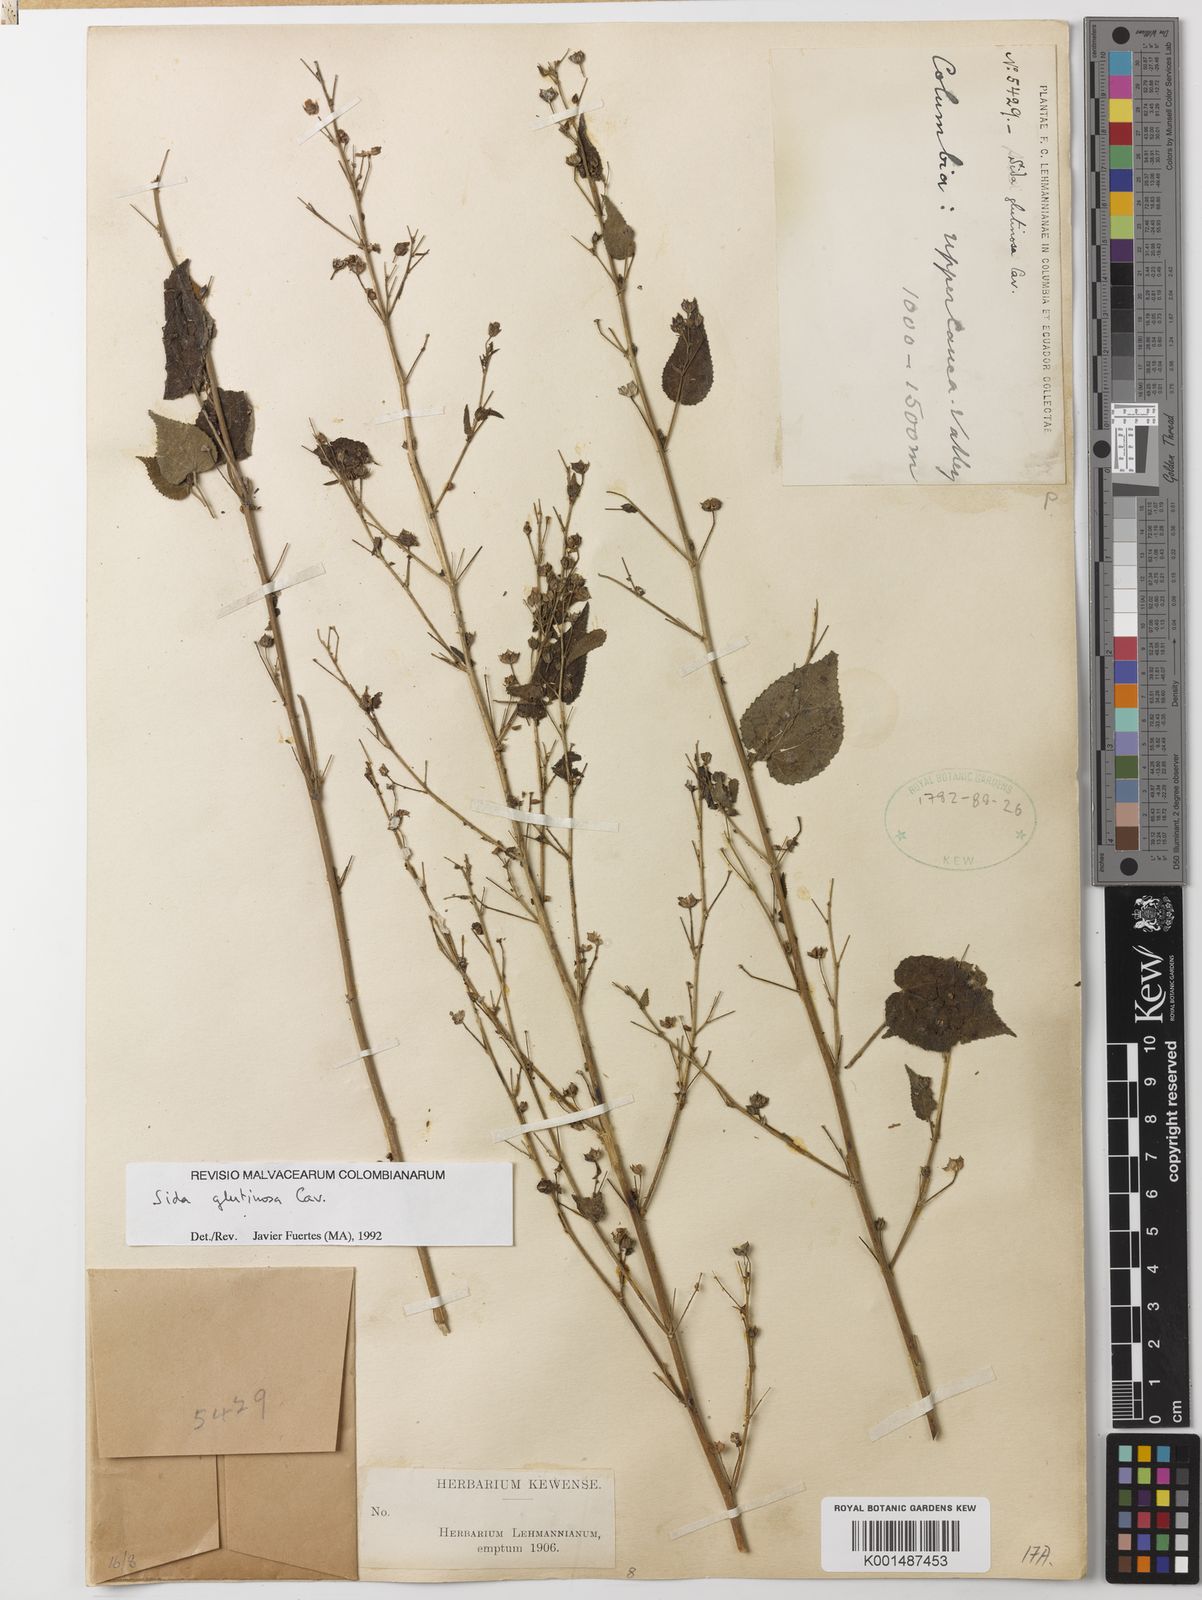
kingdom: Plantae
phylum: Tracheophyta
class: Magnoliopsida
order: Malvales
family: Malvaceae
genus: Sida
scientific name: Sida glutinosa
